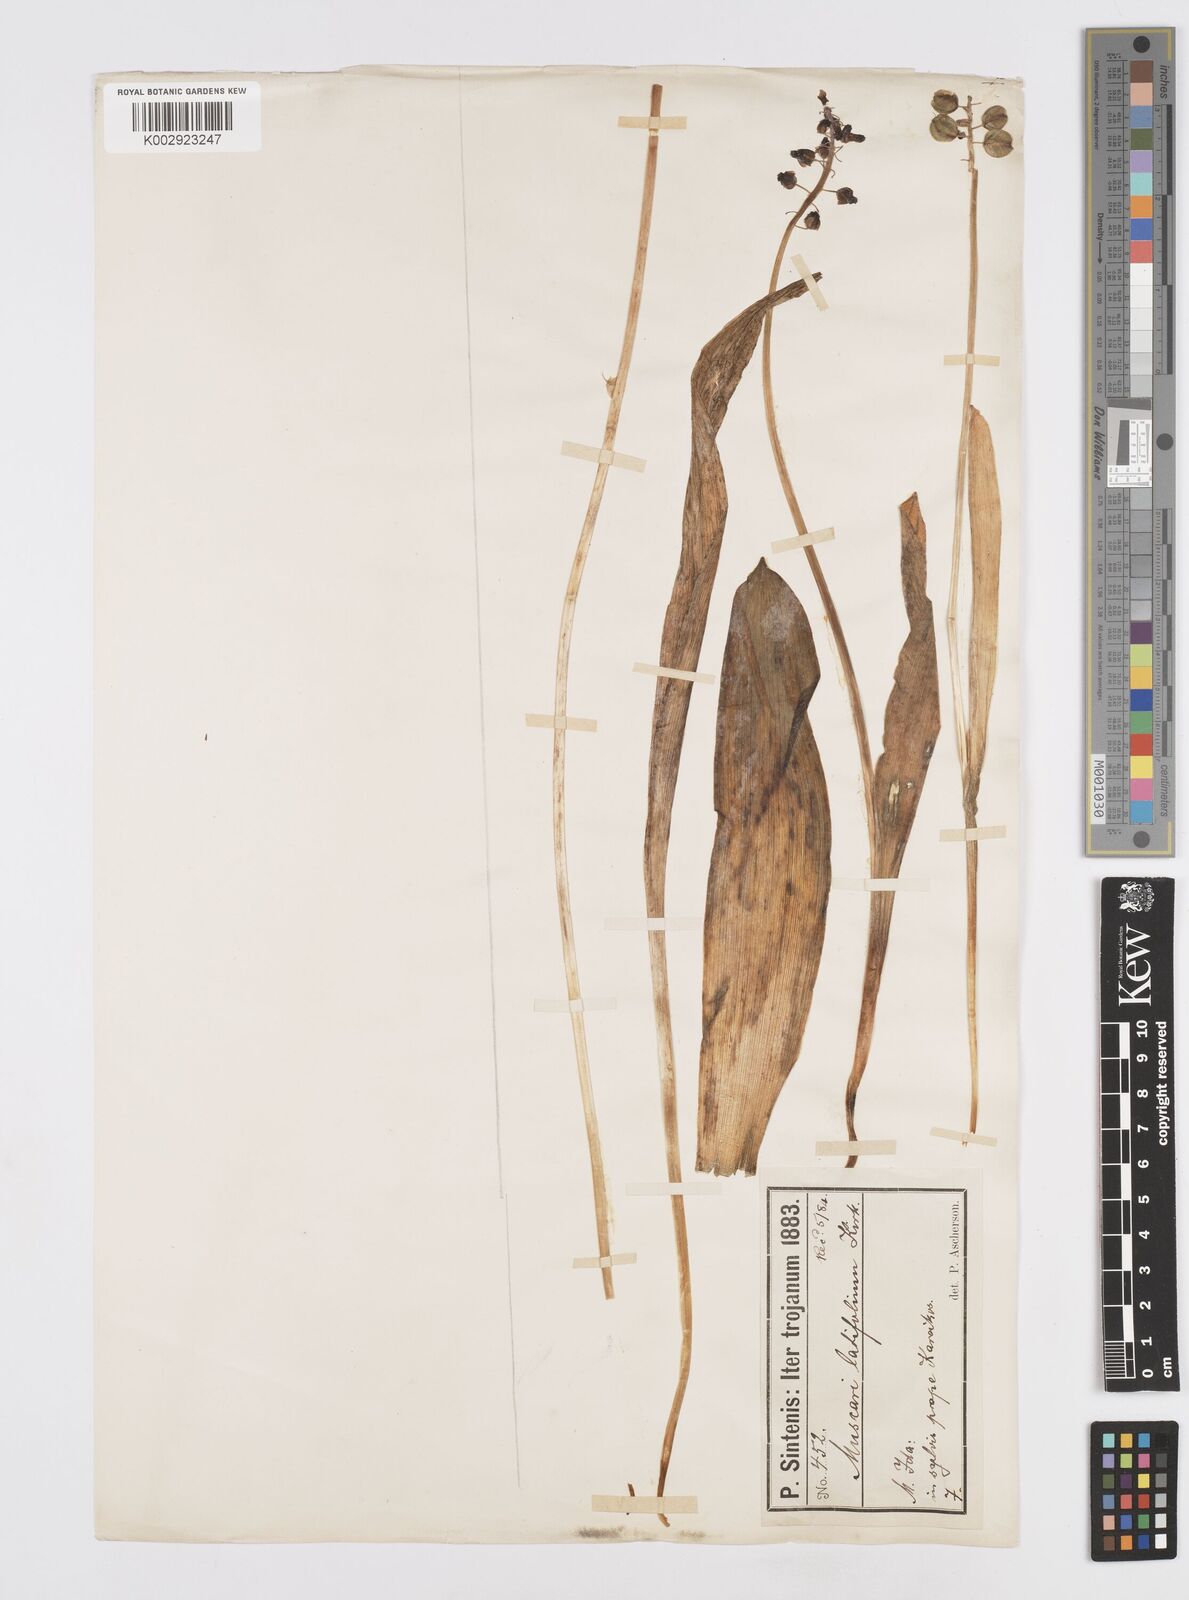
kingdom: Plantae
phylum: Tracheophyta
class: Liliopsida
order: Asparagales
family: Asparagaceae
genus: Muscari
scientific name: Muscari latifolium
